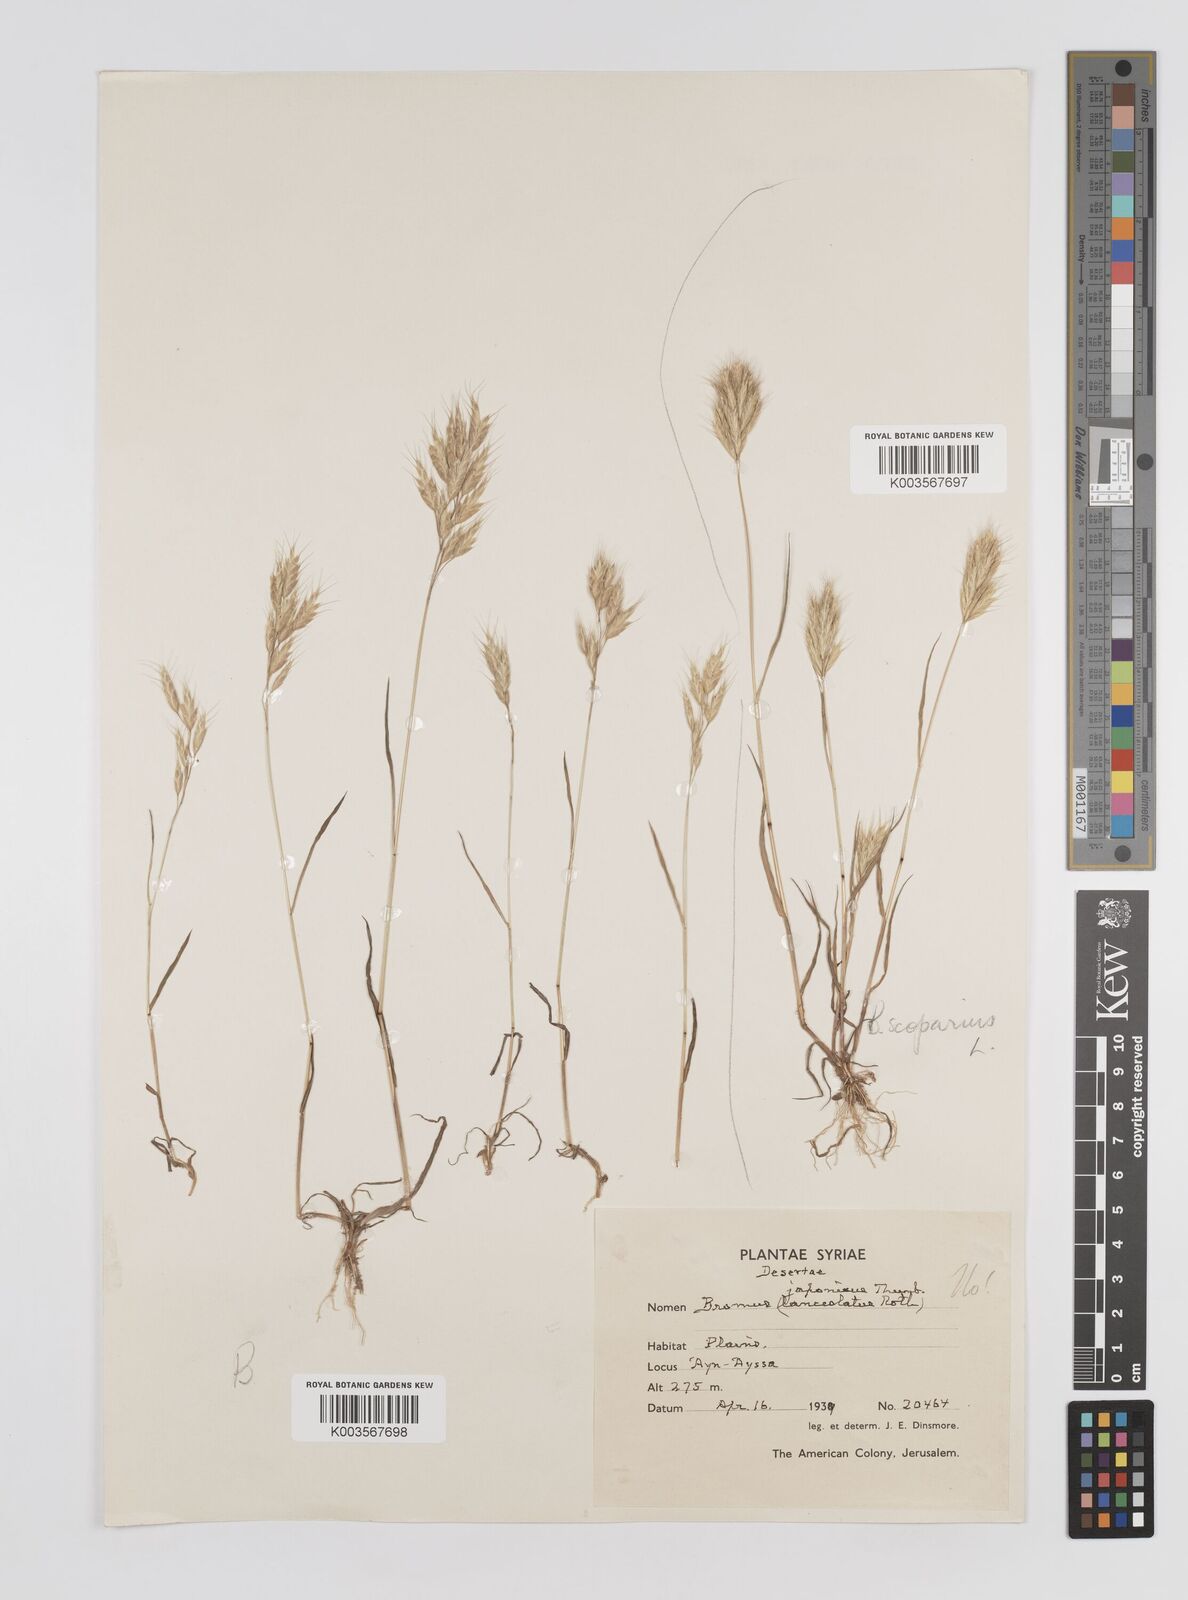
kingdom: Plantae
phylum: Tracheophyta
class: Liliopsida
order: Poales
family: Poaceae
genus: Bromus
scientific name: Bromus
